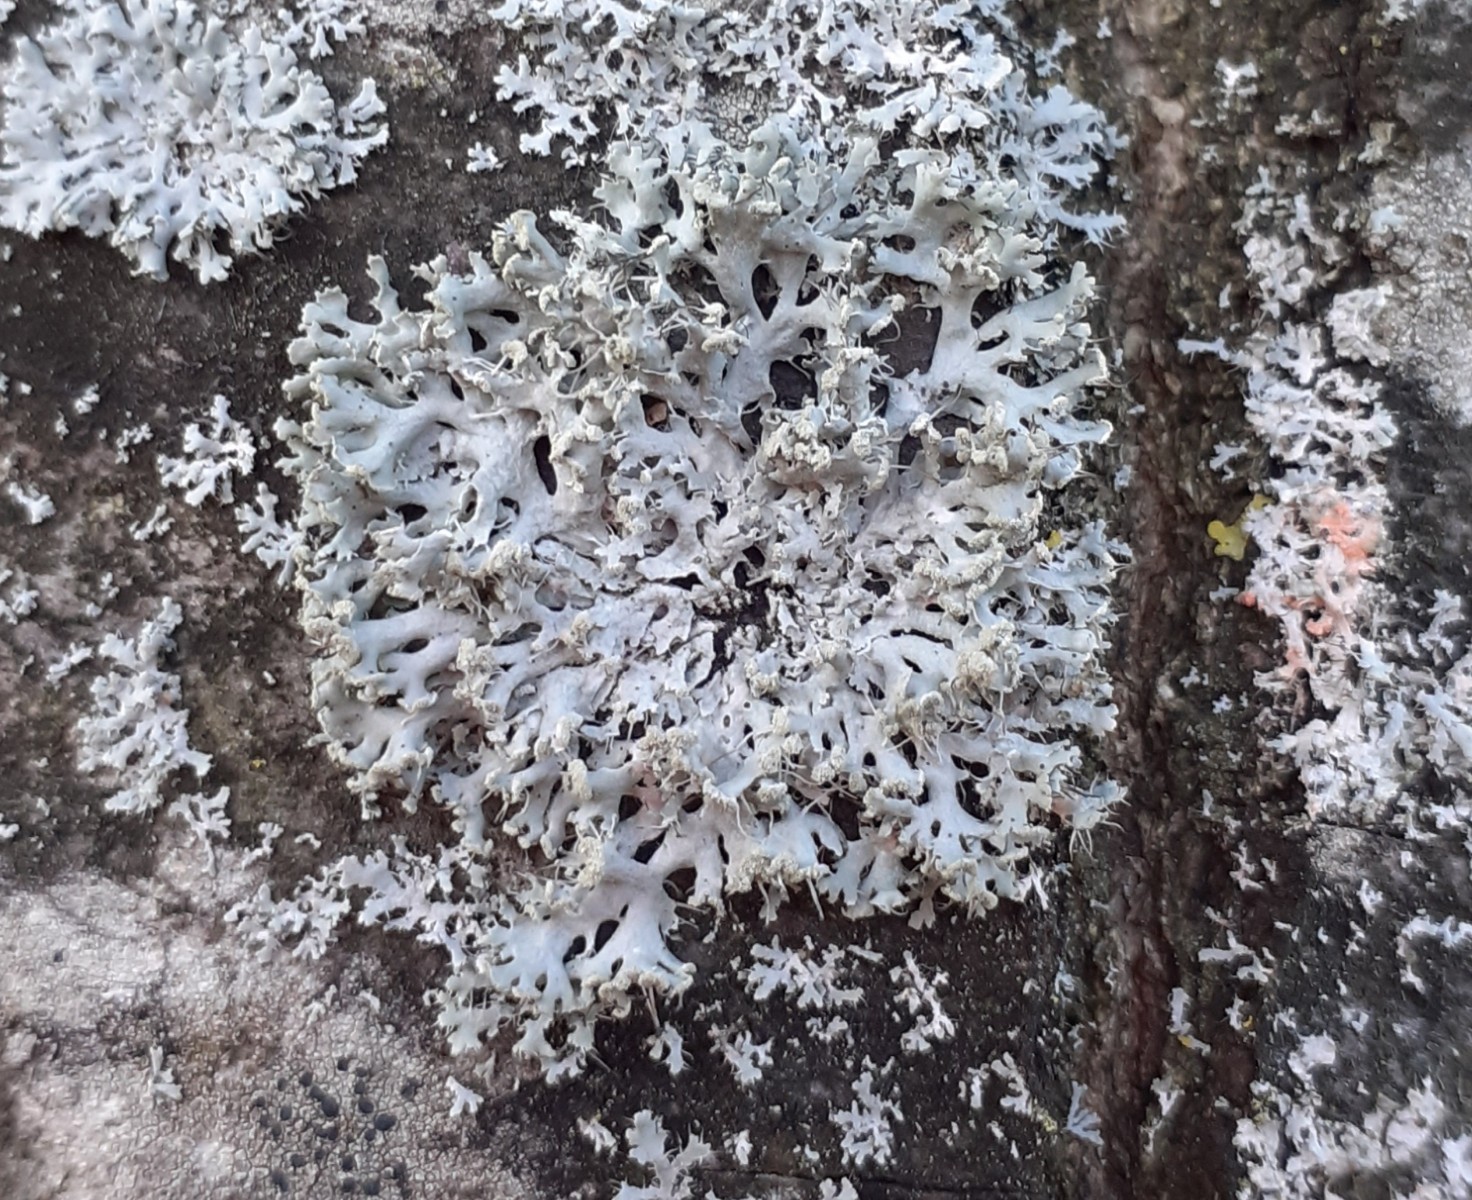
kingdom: Fungi
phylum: Ascomycota
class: Lecanoromycetes
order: Caliciales
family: Physciaceae
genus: Physcia
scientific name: Physcia tenella
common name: spæd rosetlav
